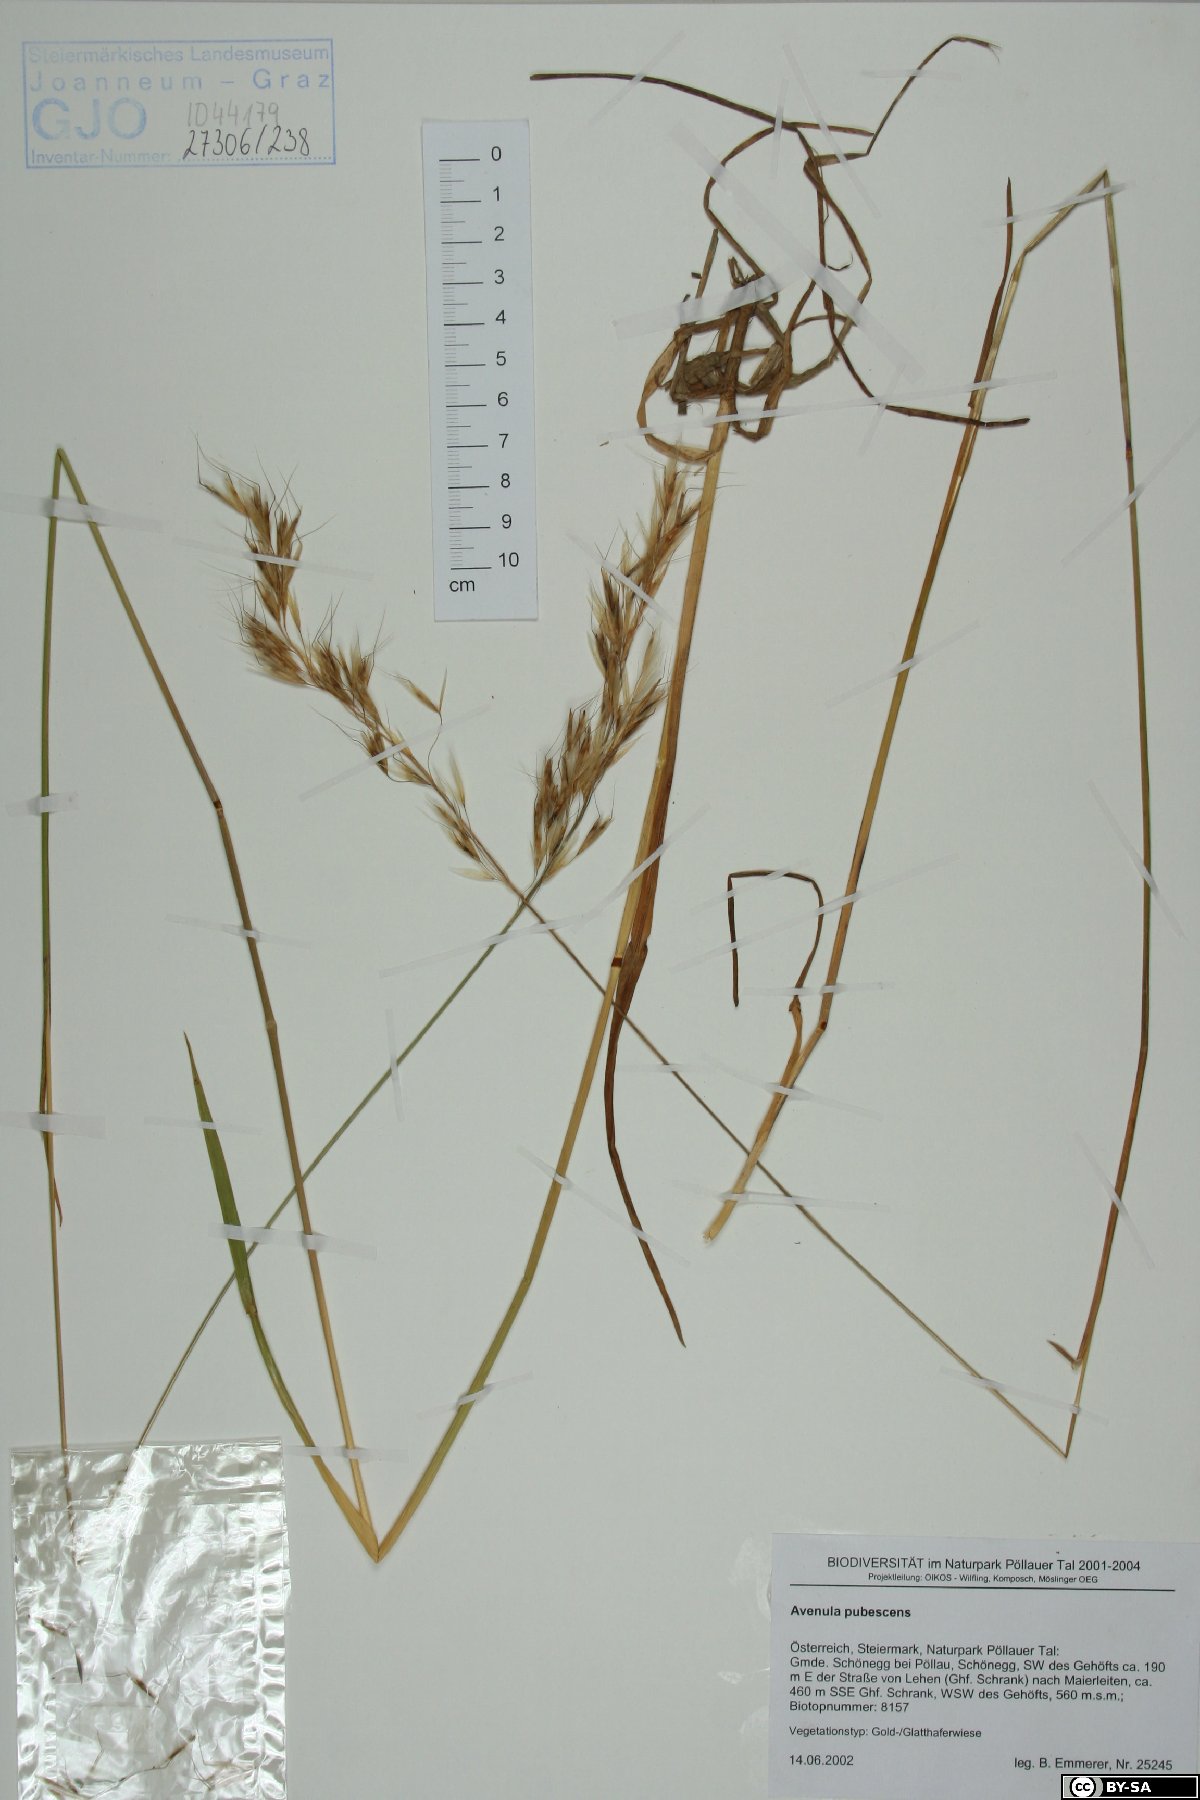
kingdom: Plantae
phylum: Tracheophyta
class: Liliopsida
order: Poales
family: Poaceae
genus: Avenula
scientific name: Avenula pubescens
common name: Downy alpine oatgrass
